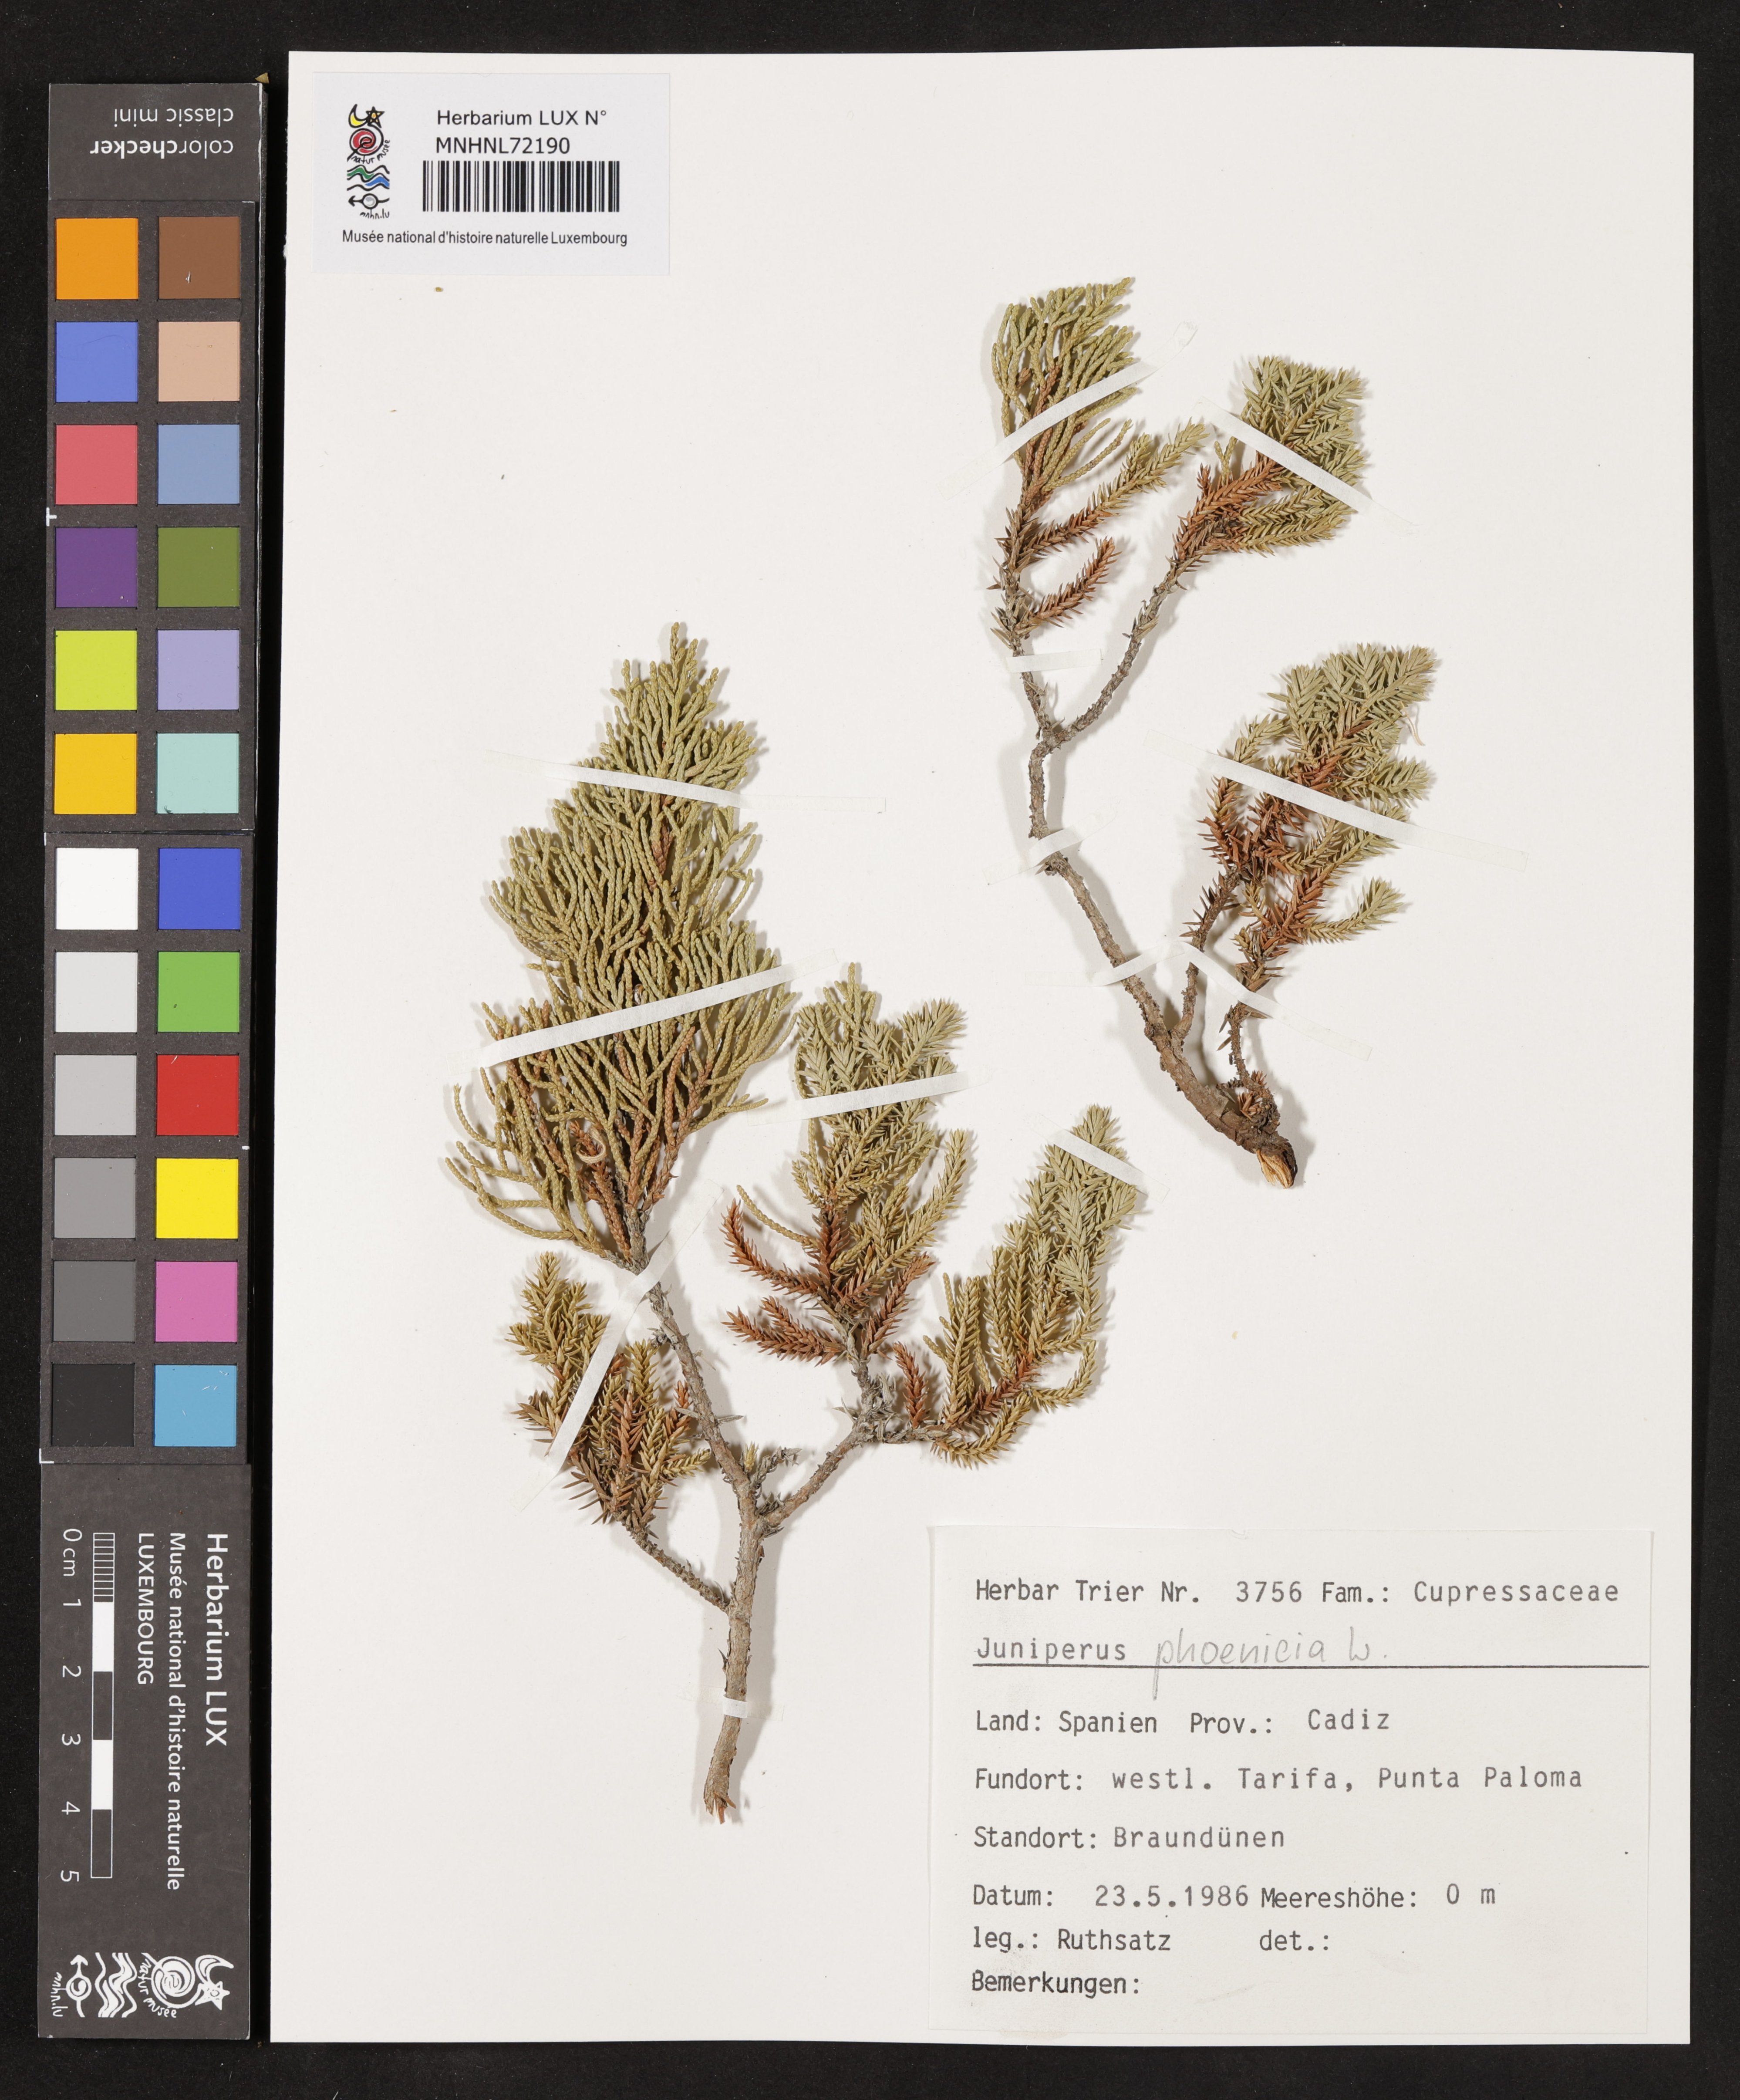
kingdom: Plantae
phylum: Tracheophyta
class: Pinopsida
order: Pinales
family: Cupressaceae
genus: Juniperus
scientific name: Juniperus phoenicea
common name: Phoenician juniper
